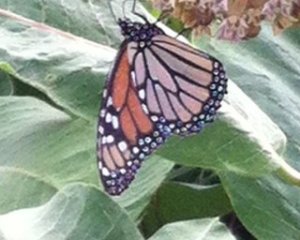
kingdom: Animalia
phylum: Arthropoda
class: Insecta
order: Lepidoptera
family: Nymphalidae
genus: Danaus
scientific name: Danaus plexippus
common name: Monarch
